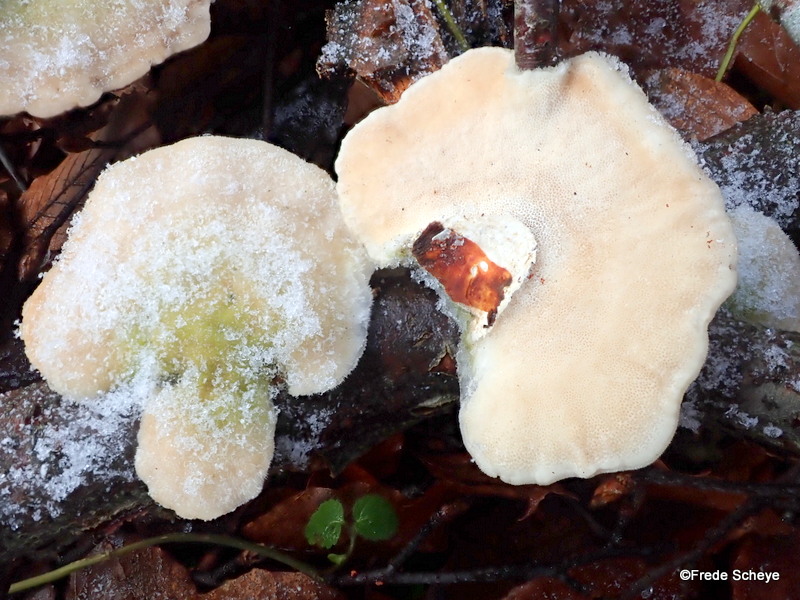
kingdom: Fungi
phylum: Basidiomycota
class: Agaricomycetes
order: Polyporales
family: Polyporaceae
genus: Trametes
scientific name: Trametes hirsuta
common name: håret læderporesvamp
